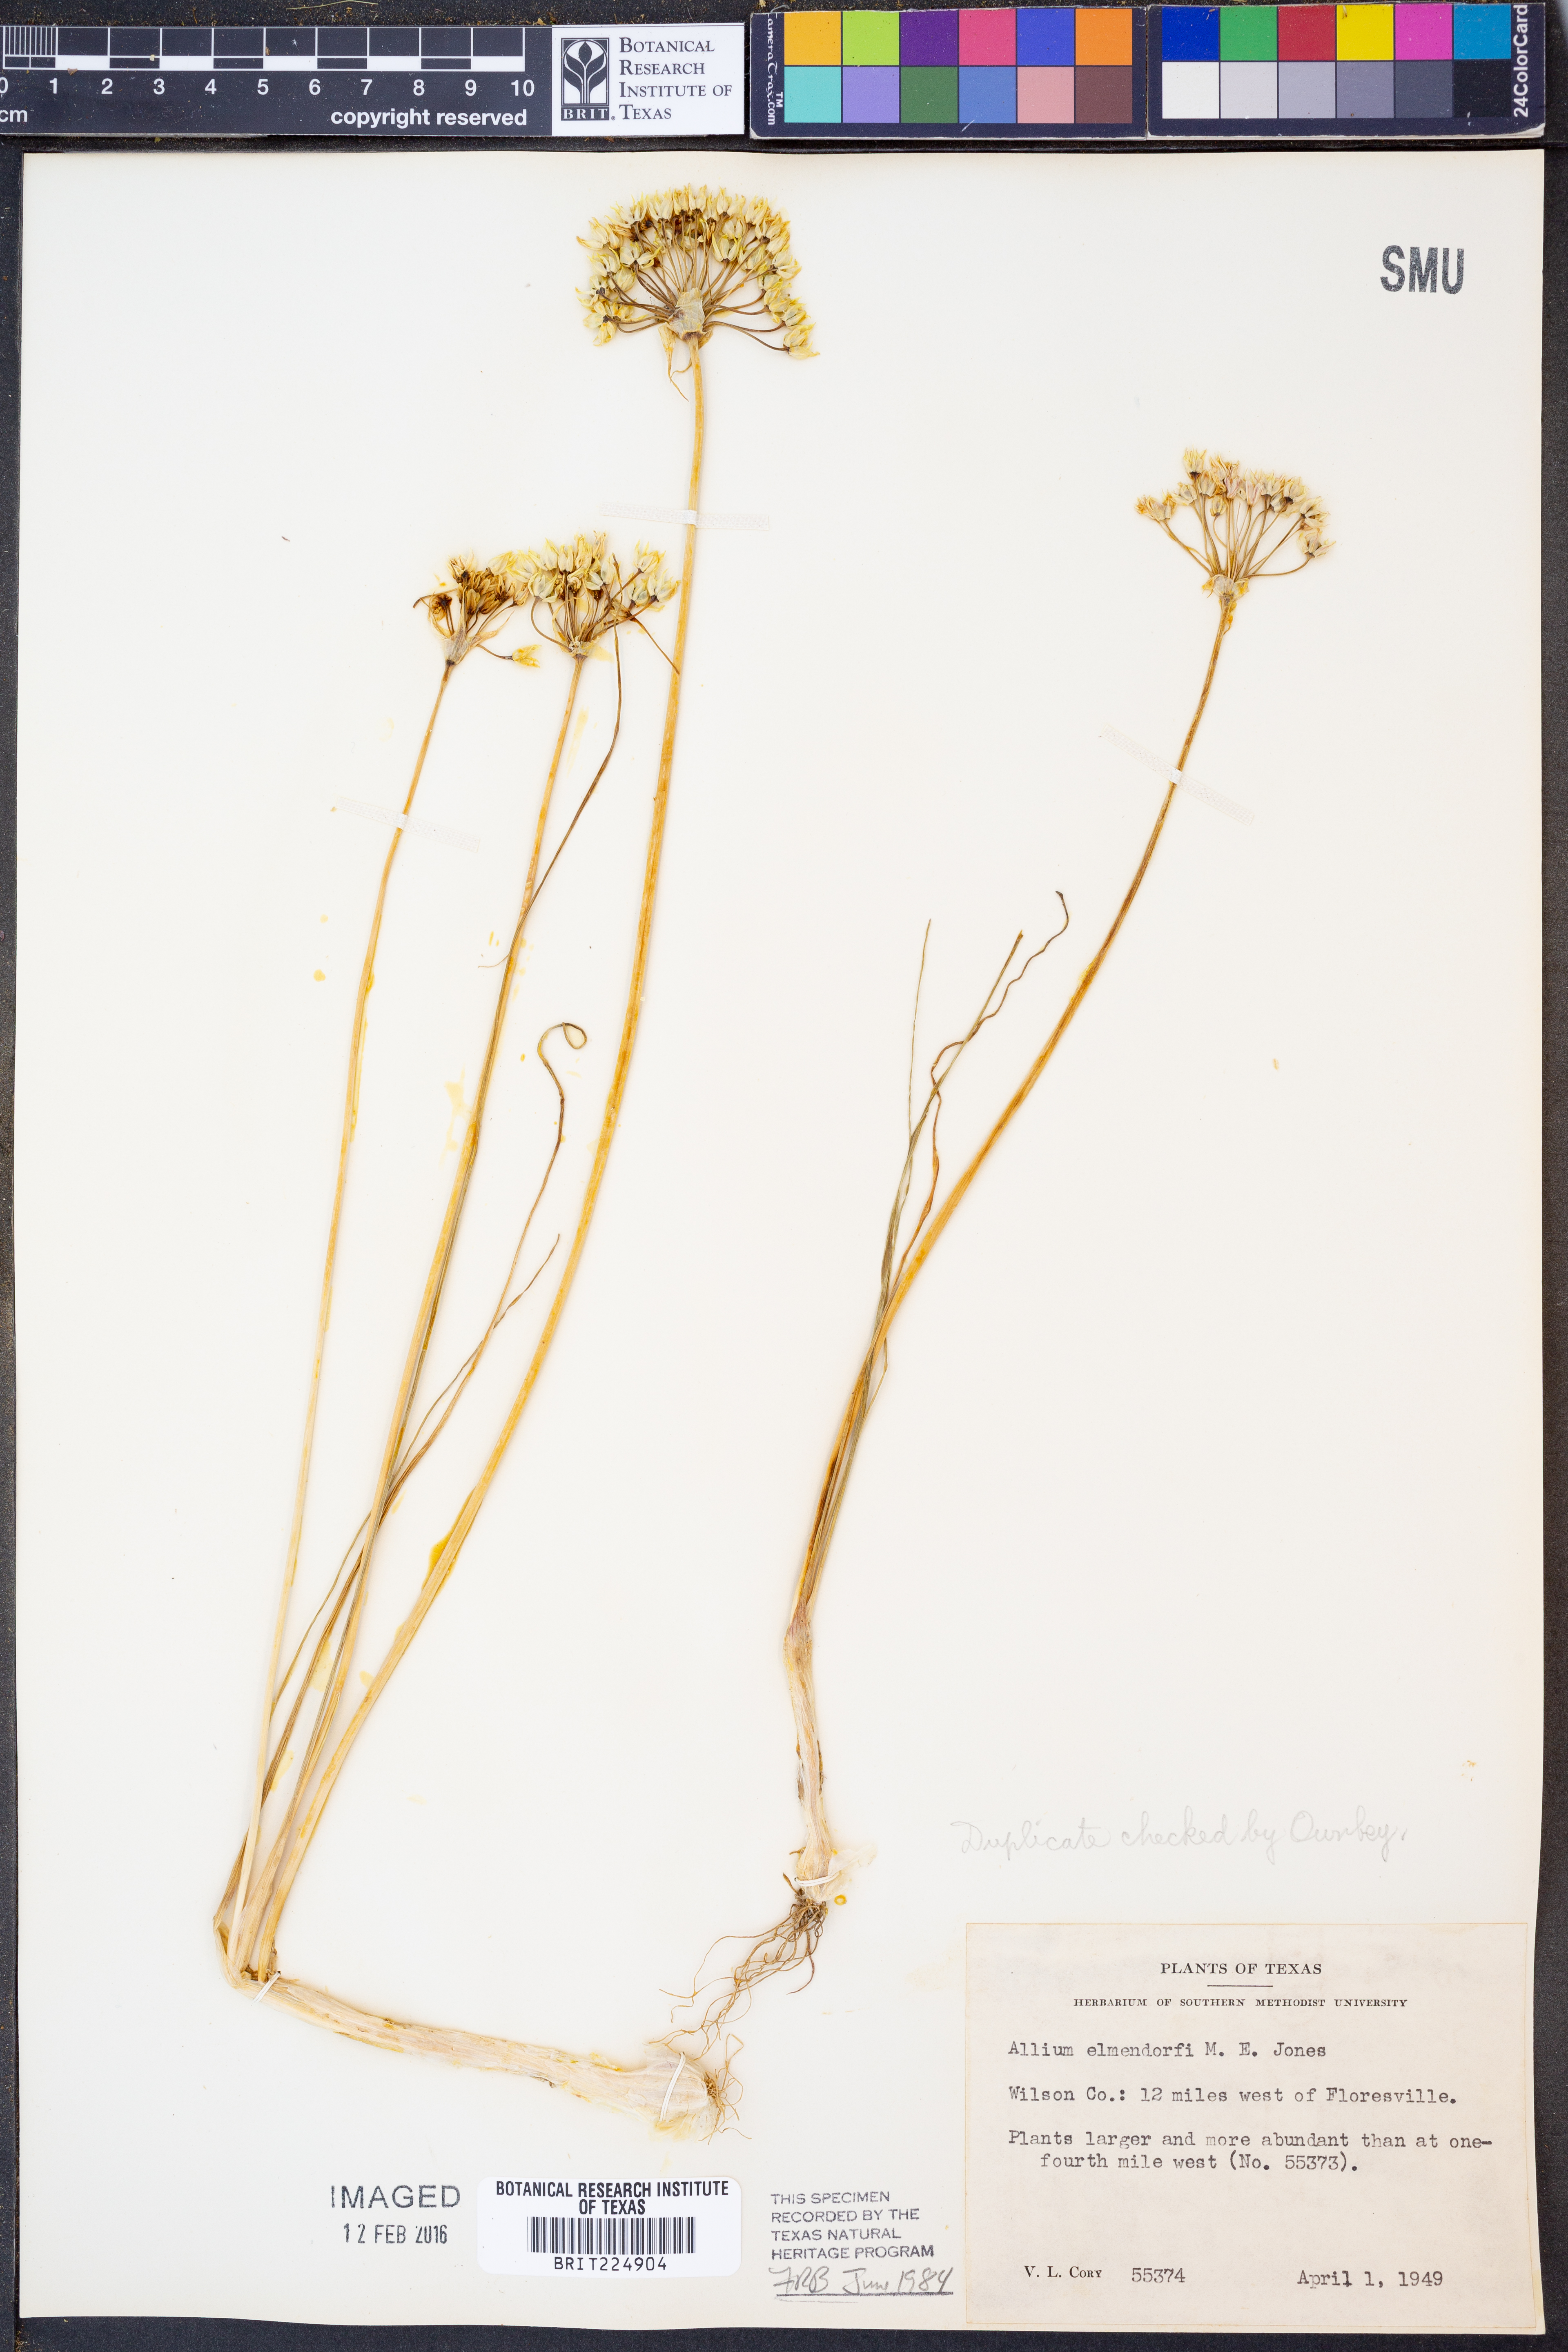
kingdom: Plantae
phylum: Tracheophyta
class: Liliopsida
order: Asparagales
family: Amaryllidaceae
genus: Allium
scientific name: Allium elmendorfii
